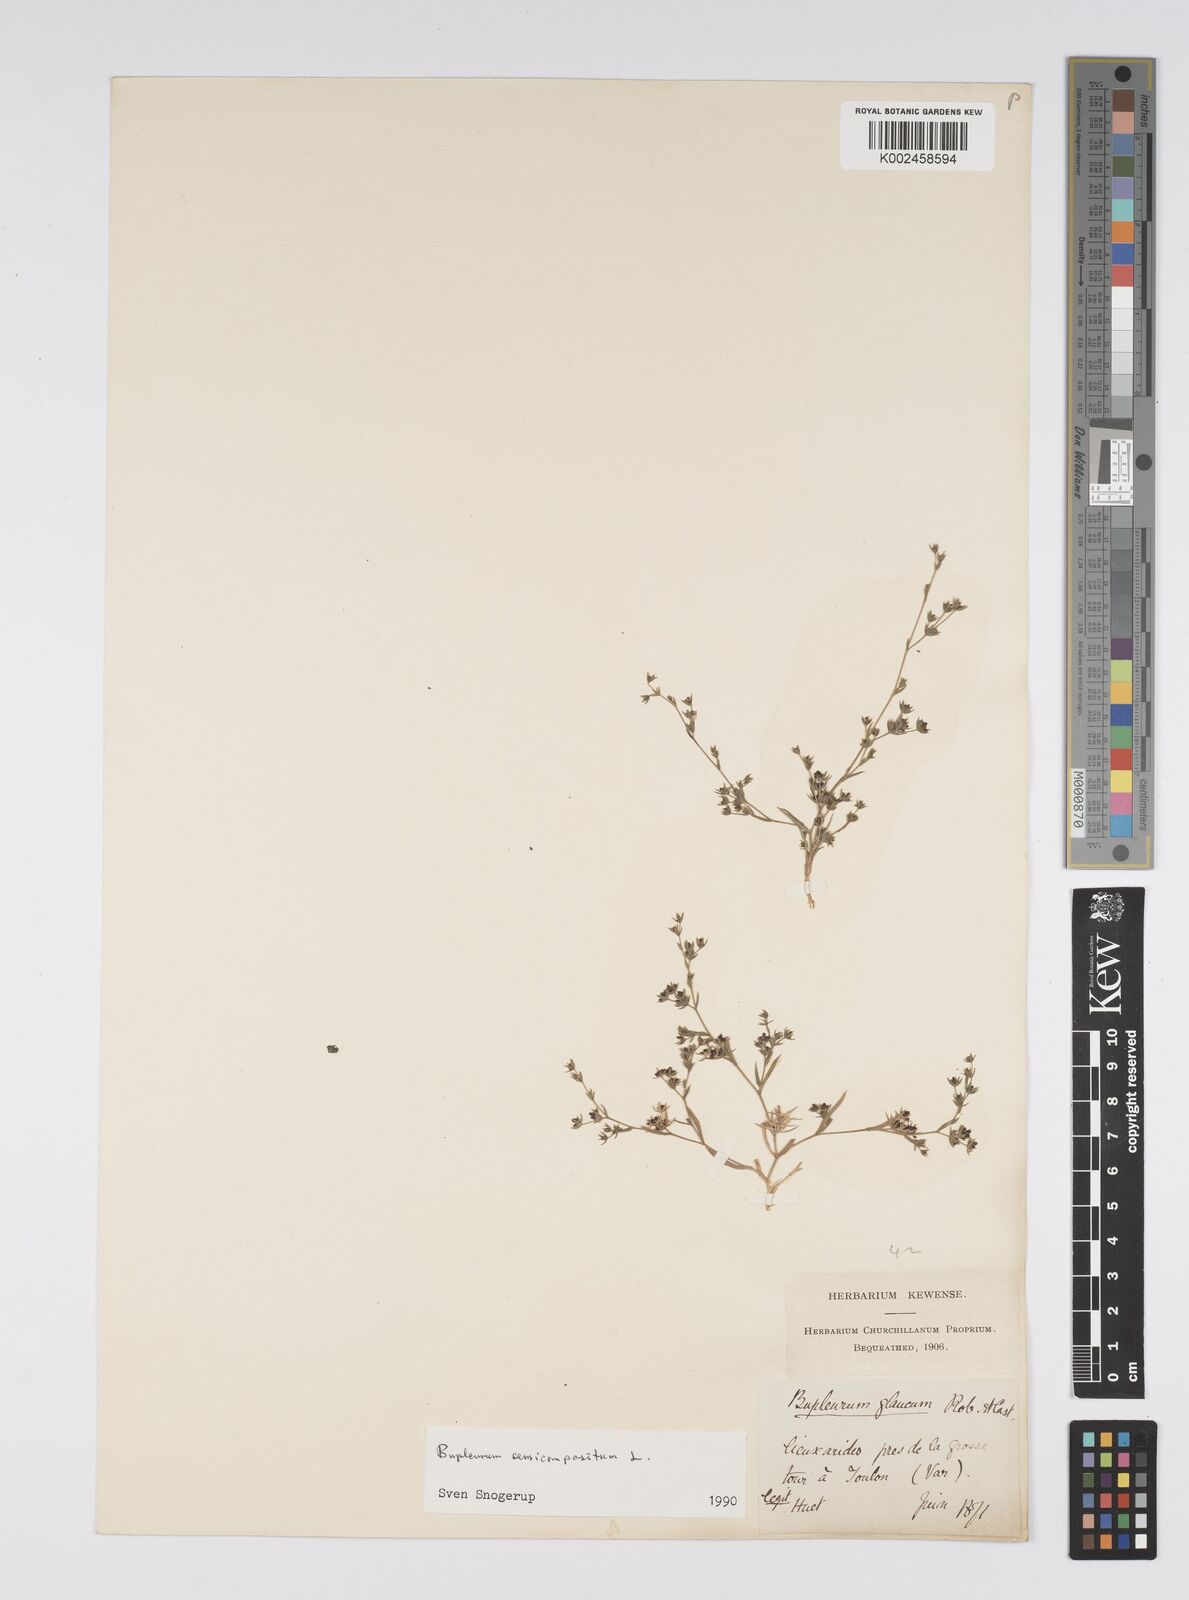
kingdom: Plantae
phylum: Tracheophyta
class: Magnoliopsida
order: Apiales
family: Apiaceae
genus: Bupleurum
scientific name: Bupleurum semicompositum
